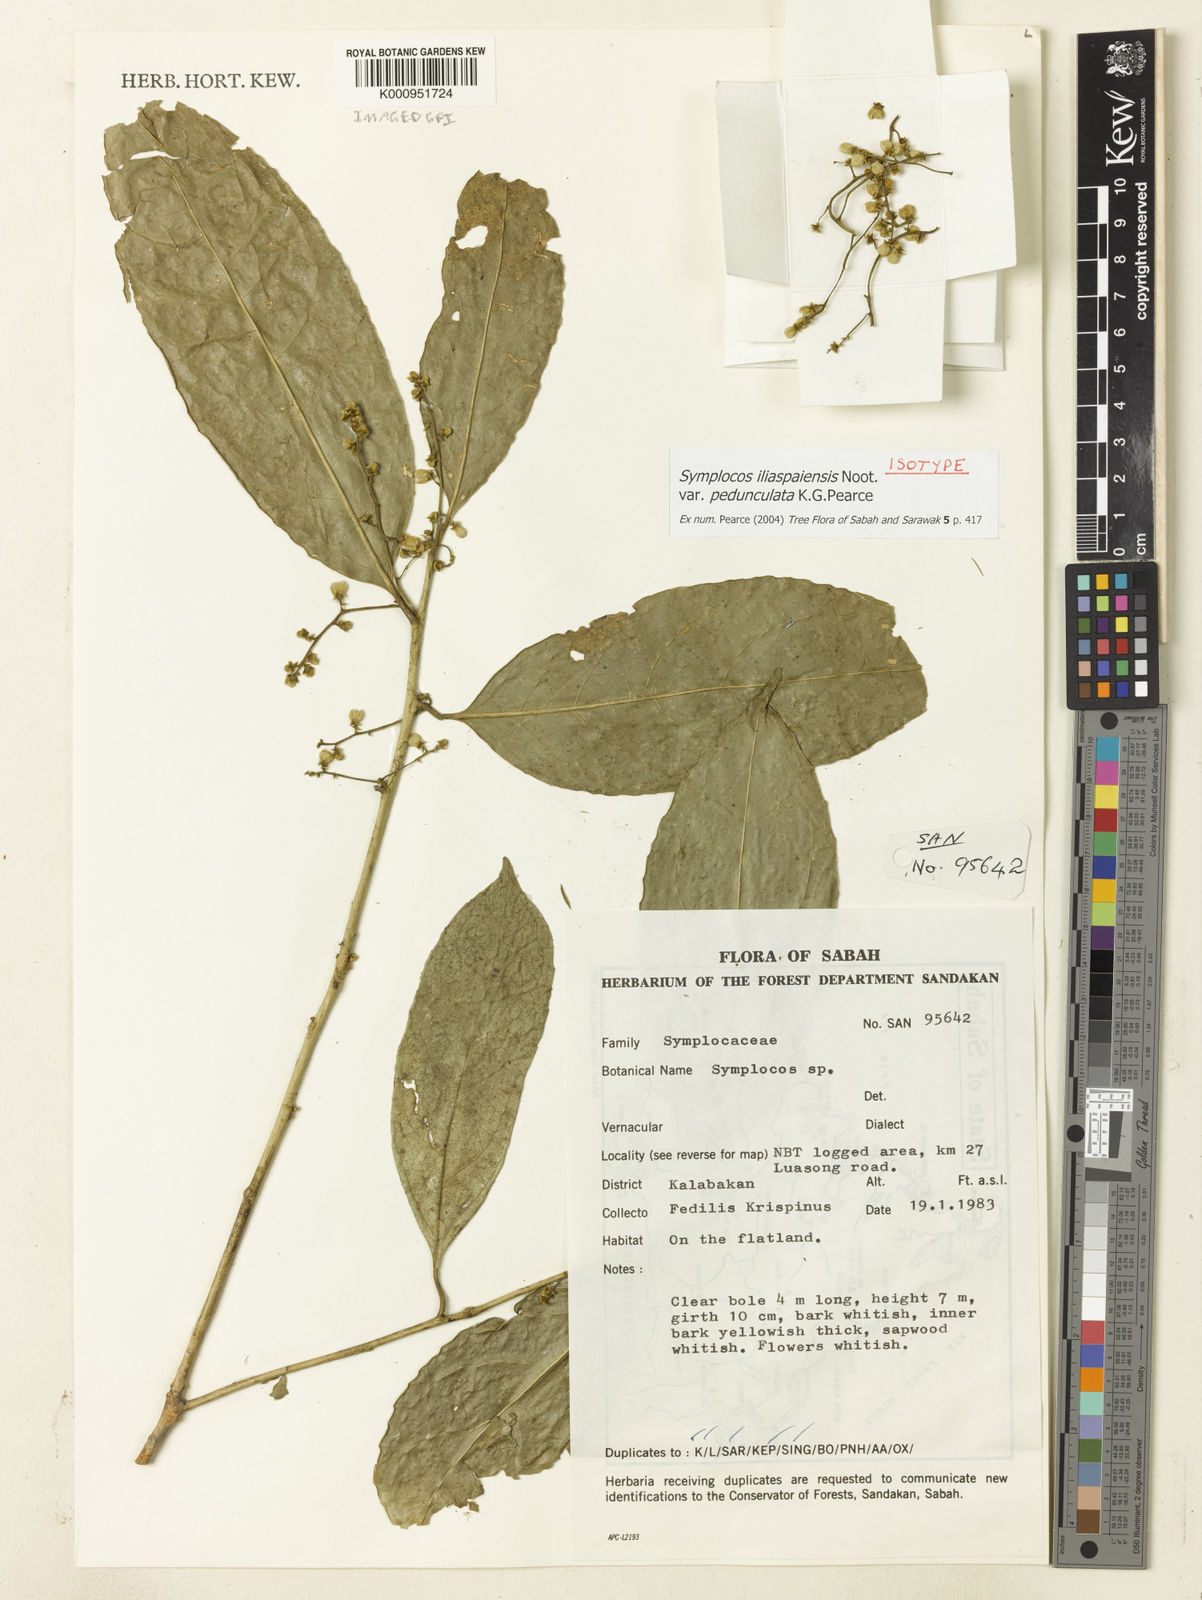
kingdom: Plantae
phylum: Tracheophyta
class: Magnoliopsida
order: Ericales
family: Symplocaceae
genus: Symplocos
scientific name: Symplocos
